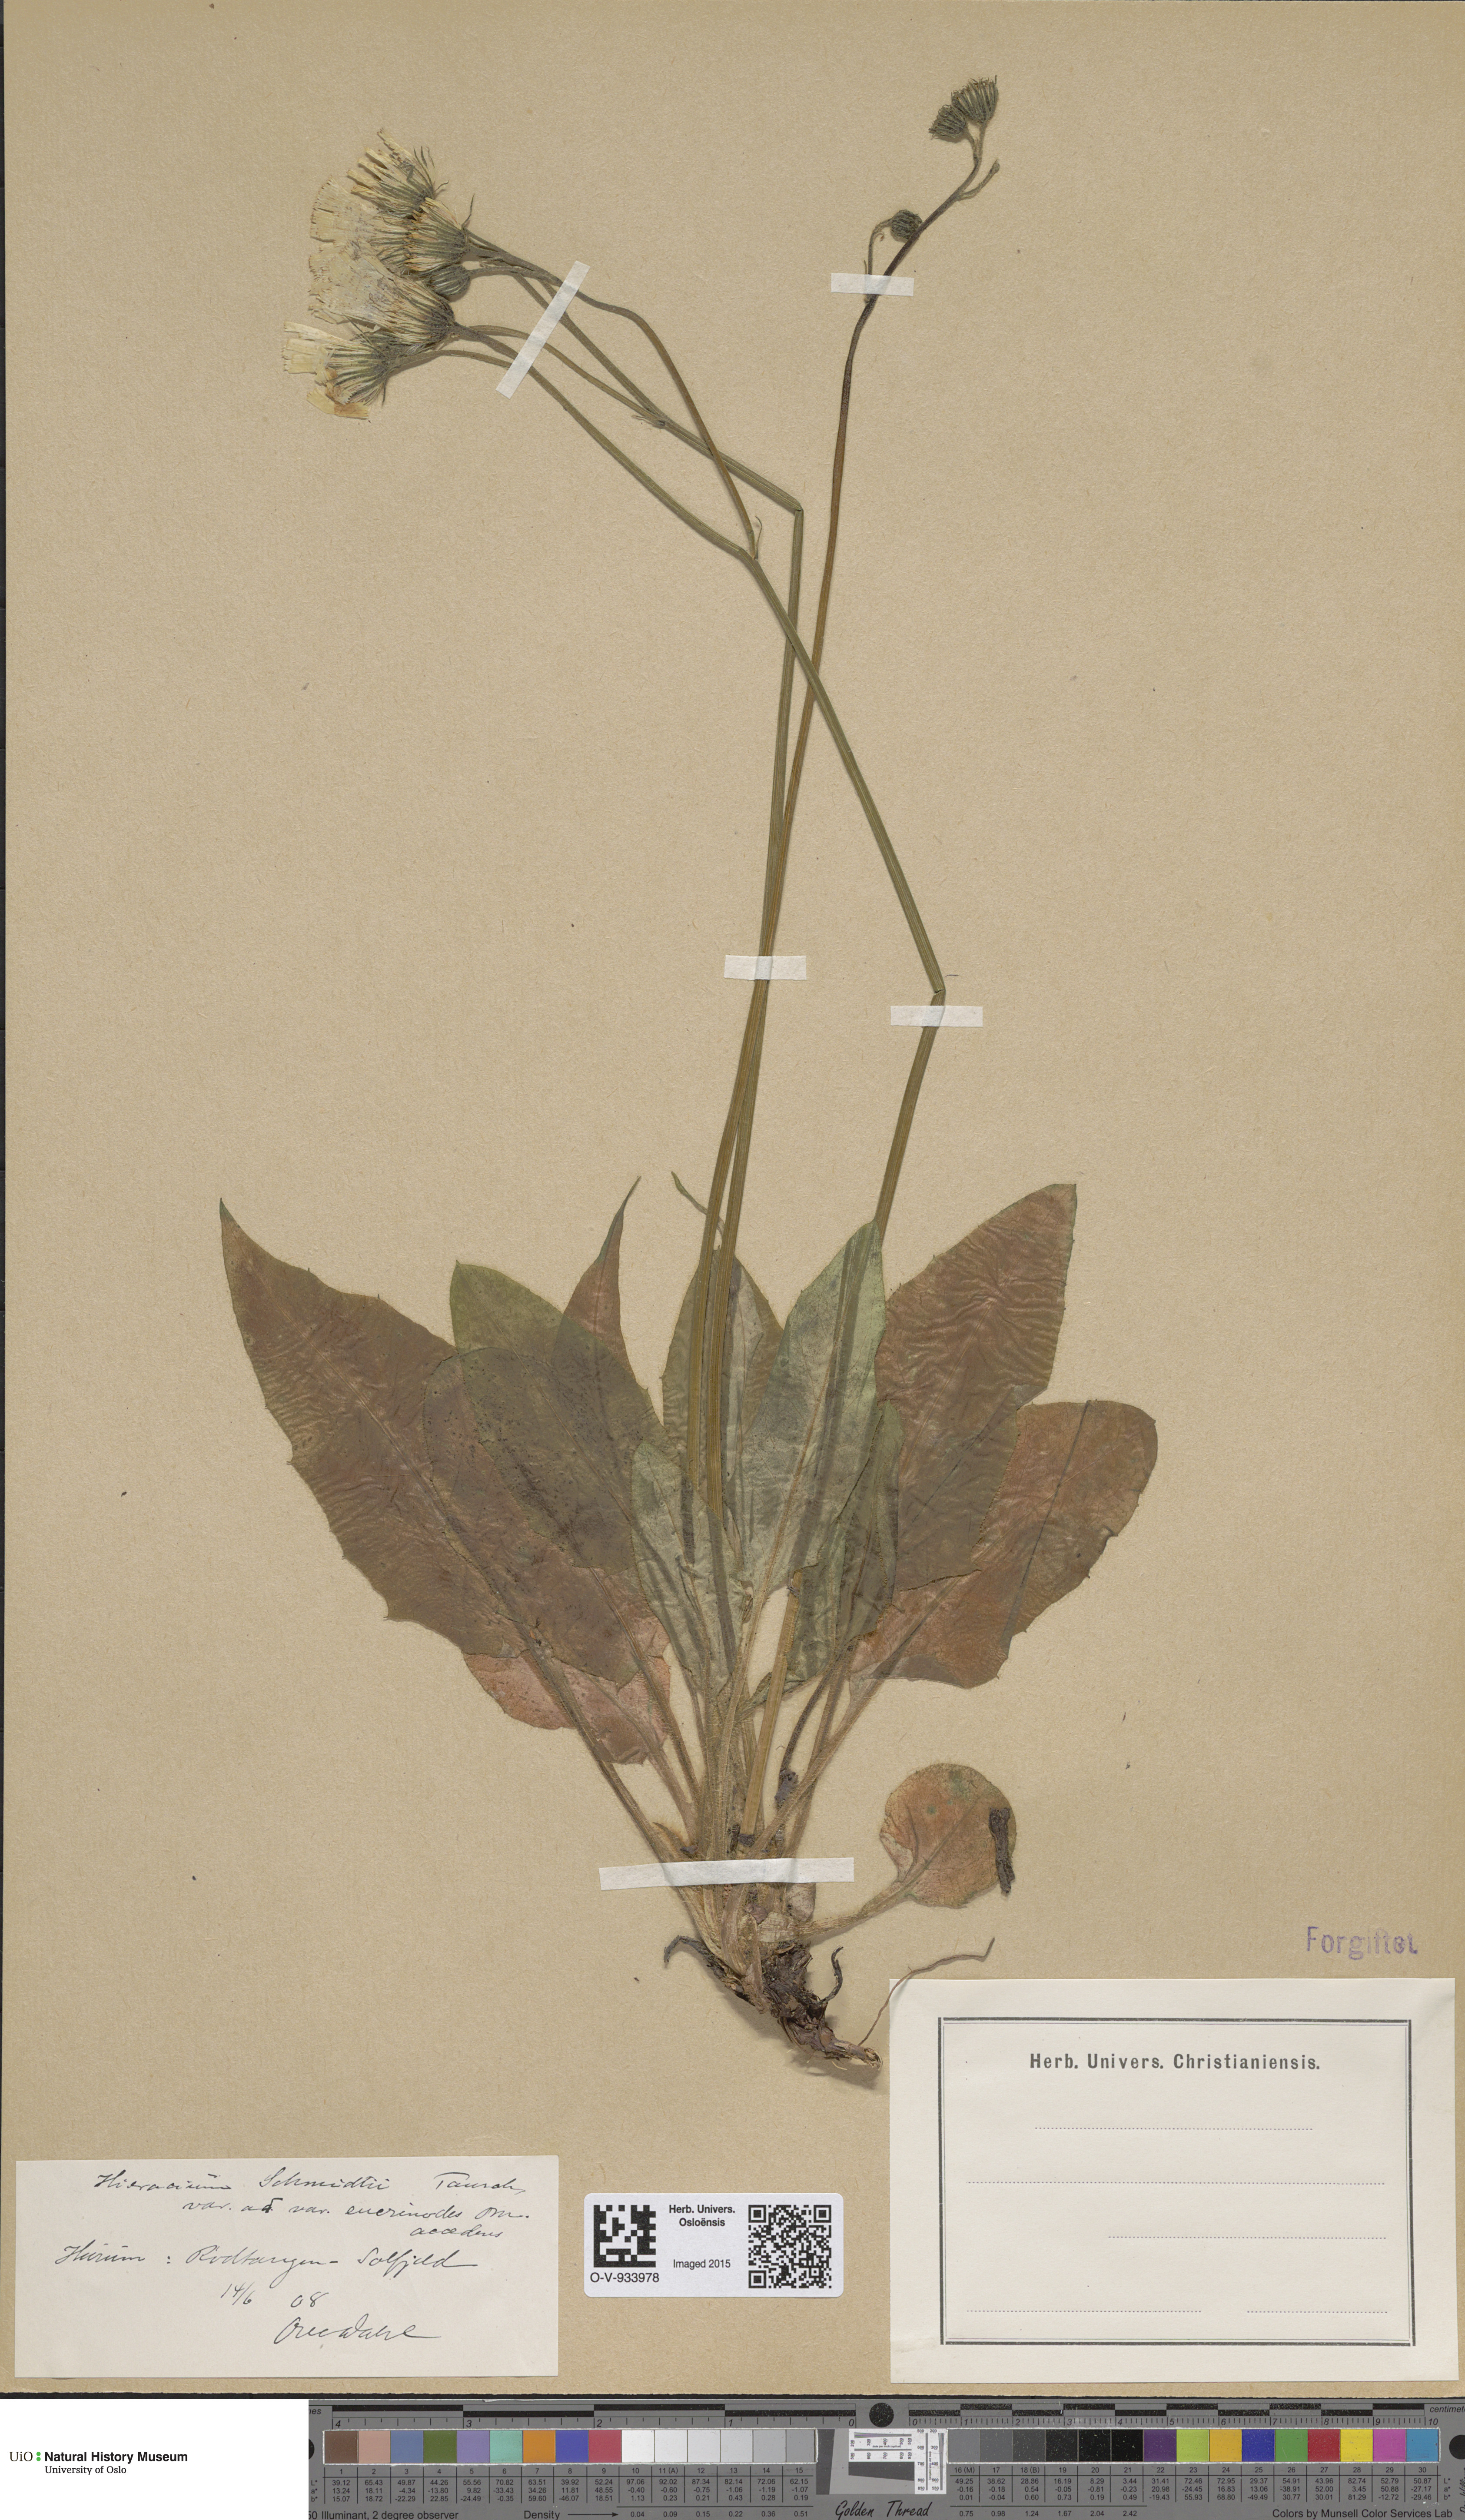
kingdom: Plantae
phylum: Tracheophyta
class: Magnoliopsida
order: Asterales
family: Asteraceae
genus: Hieracium
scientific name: Hieracium schmidtii
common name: Schmidt's hawkweed
